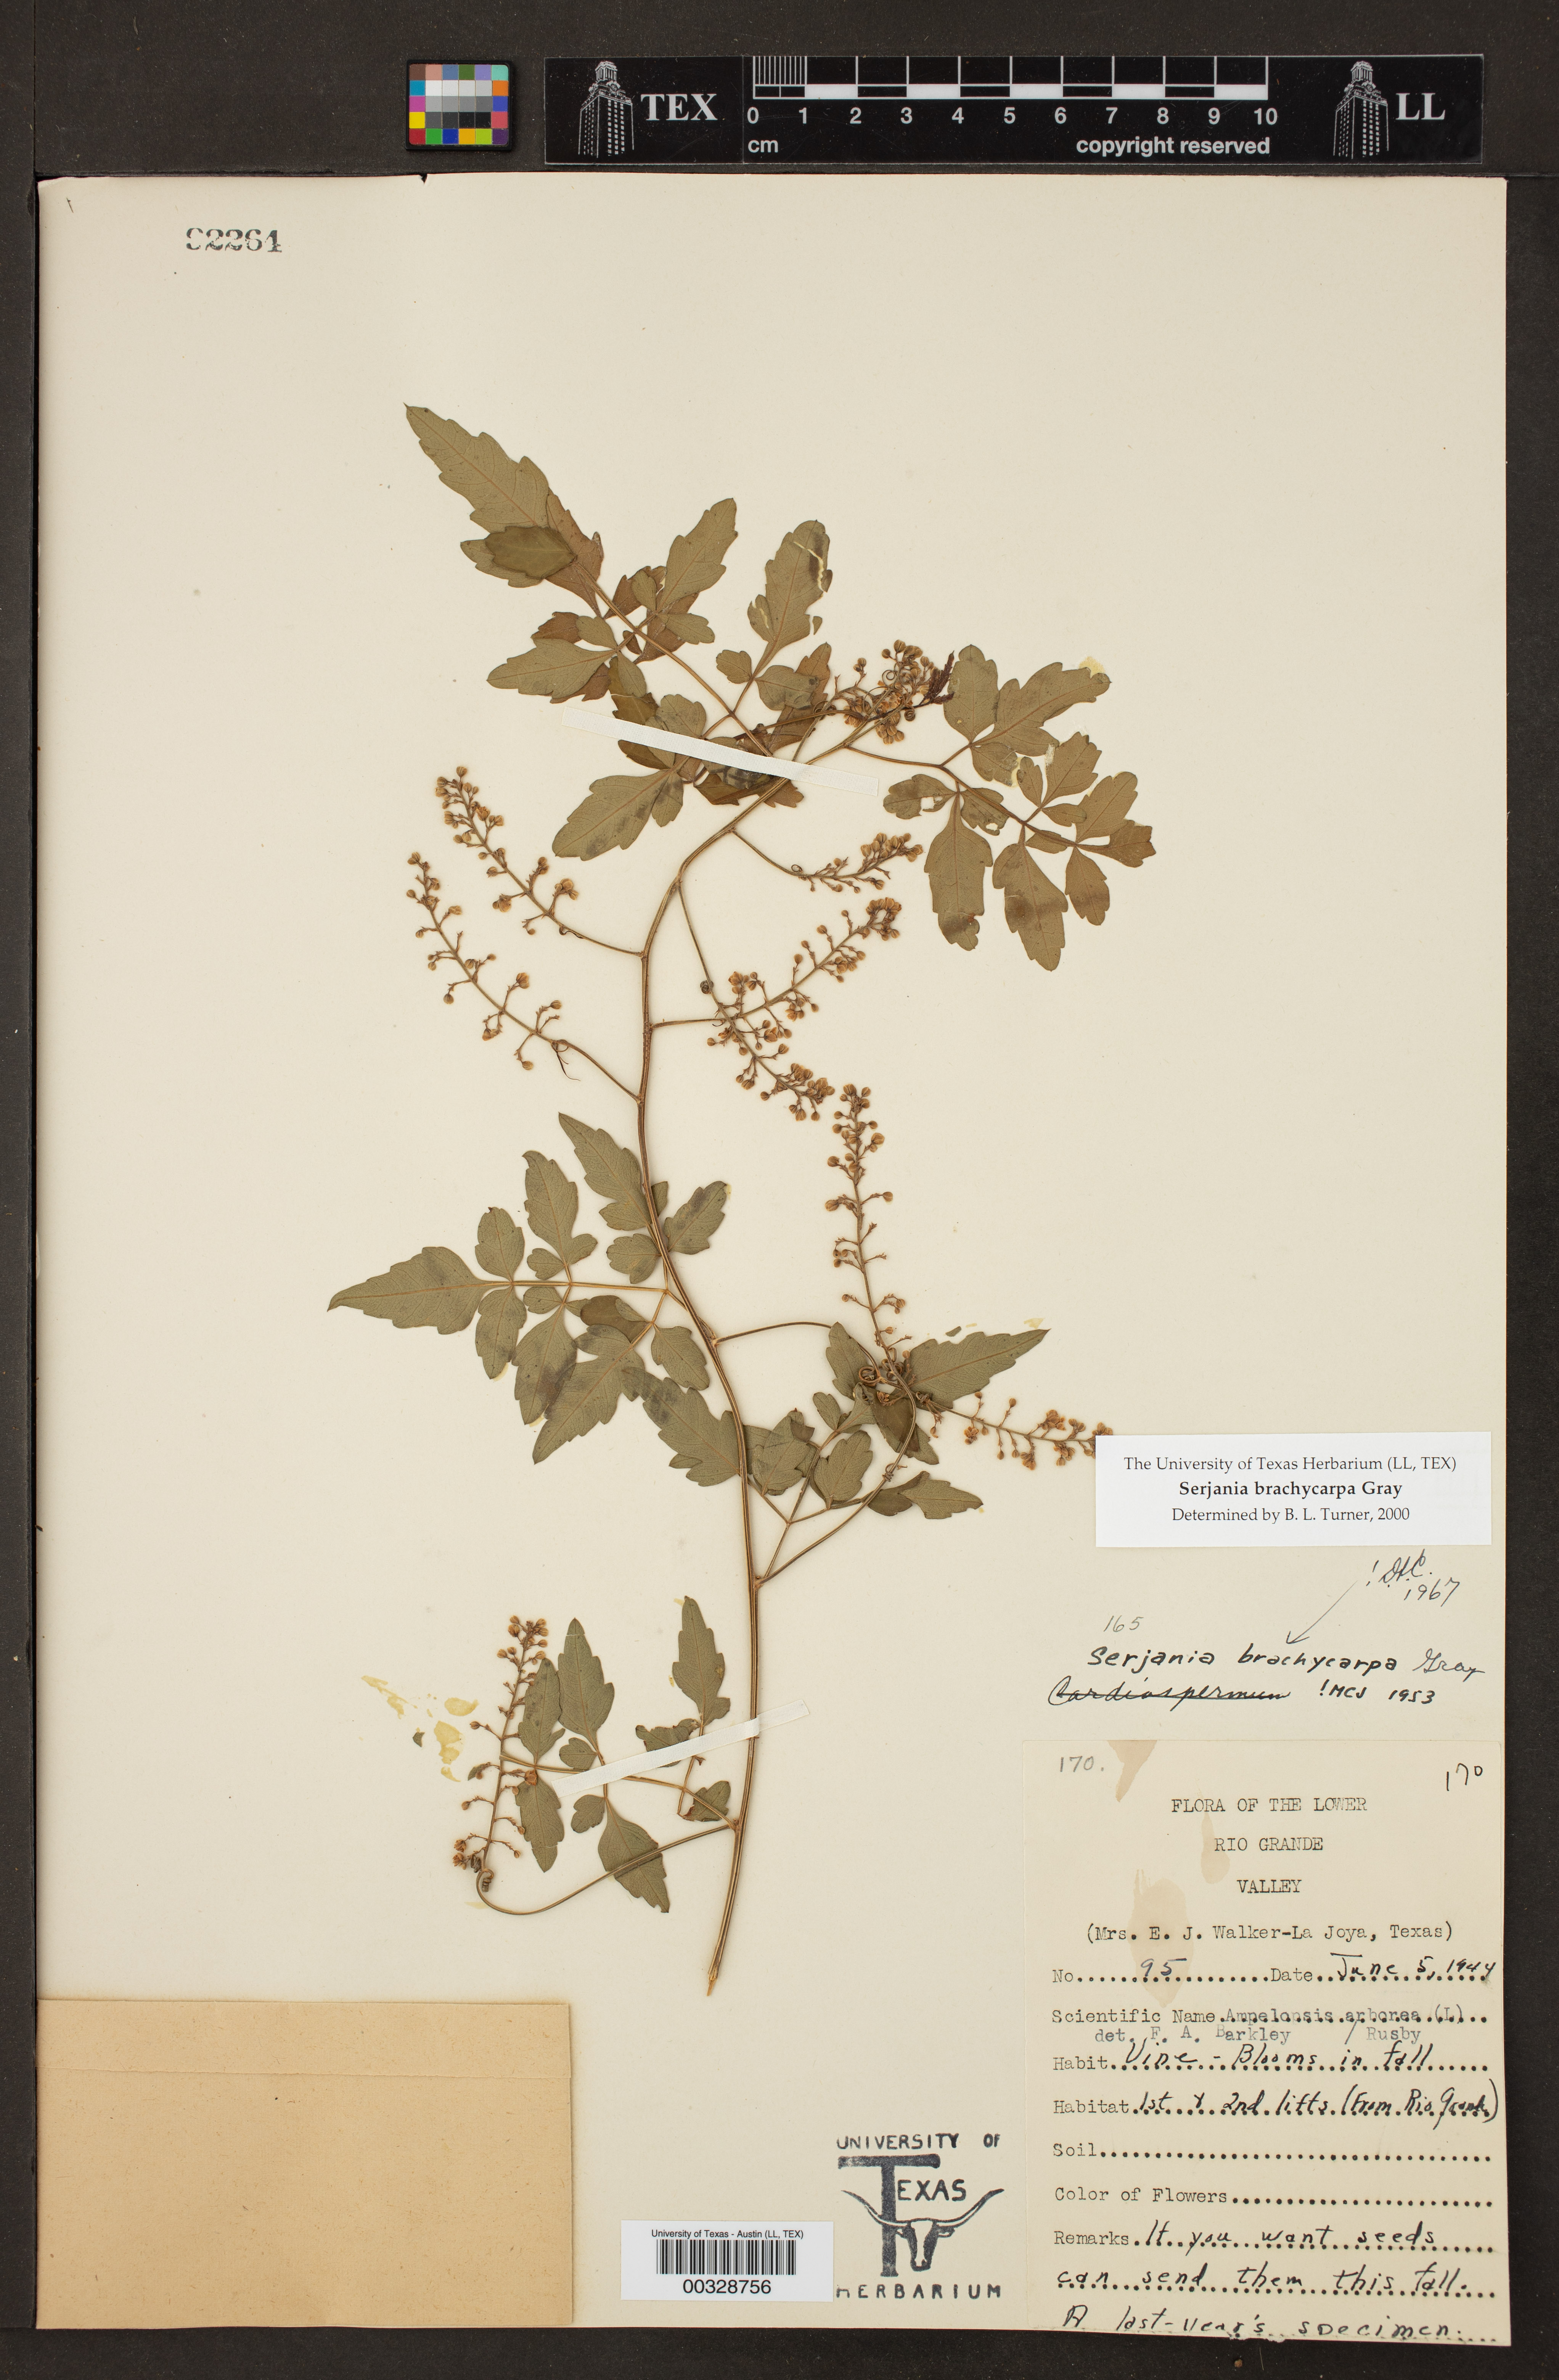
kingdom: Plantae
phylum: Tracheophyta
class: Magnoliopsida
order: Sapindales
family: Sapindaceae
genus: Serjania
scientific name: Serjania brachycarpa
